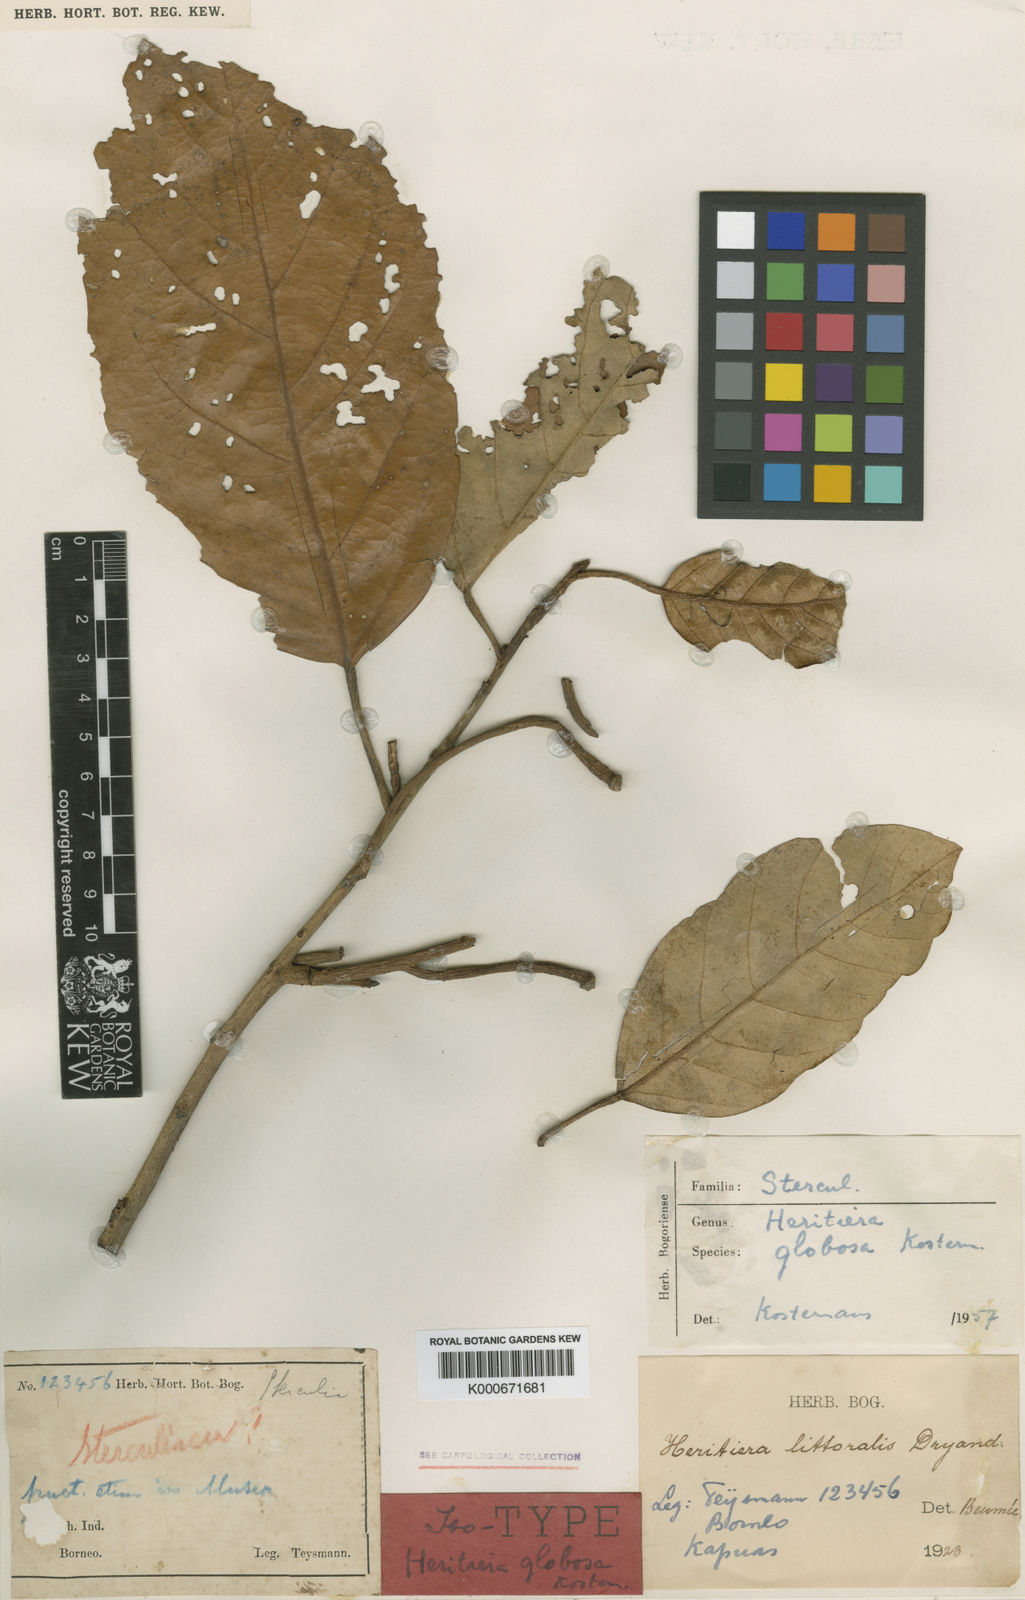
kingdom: Plantae
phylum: Tracheophyta
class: Magnoliopsida
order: Malvales
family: Malvaceae
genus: Heritiera
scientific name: Heritiera globosa
